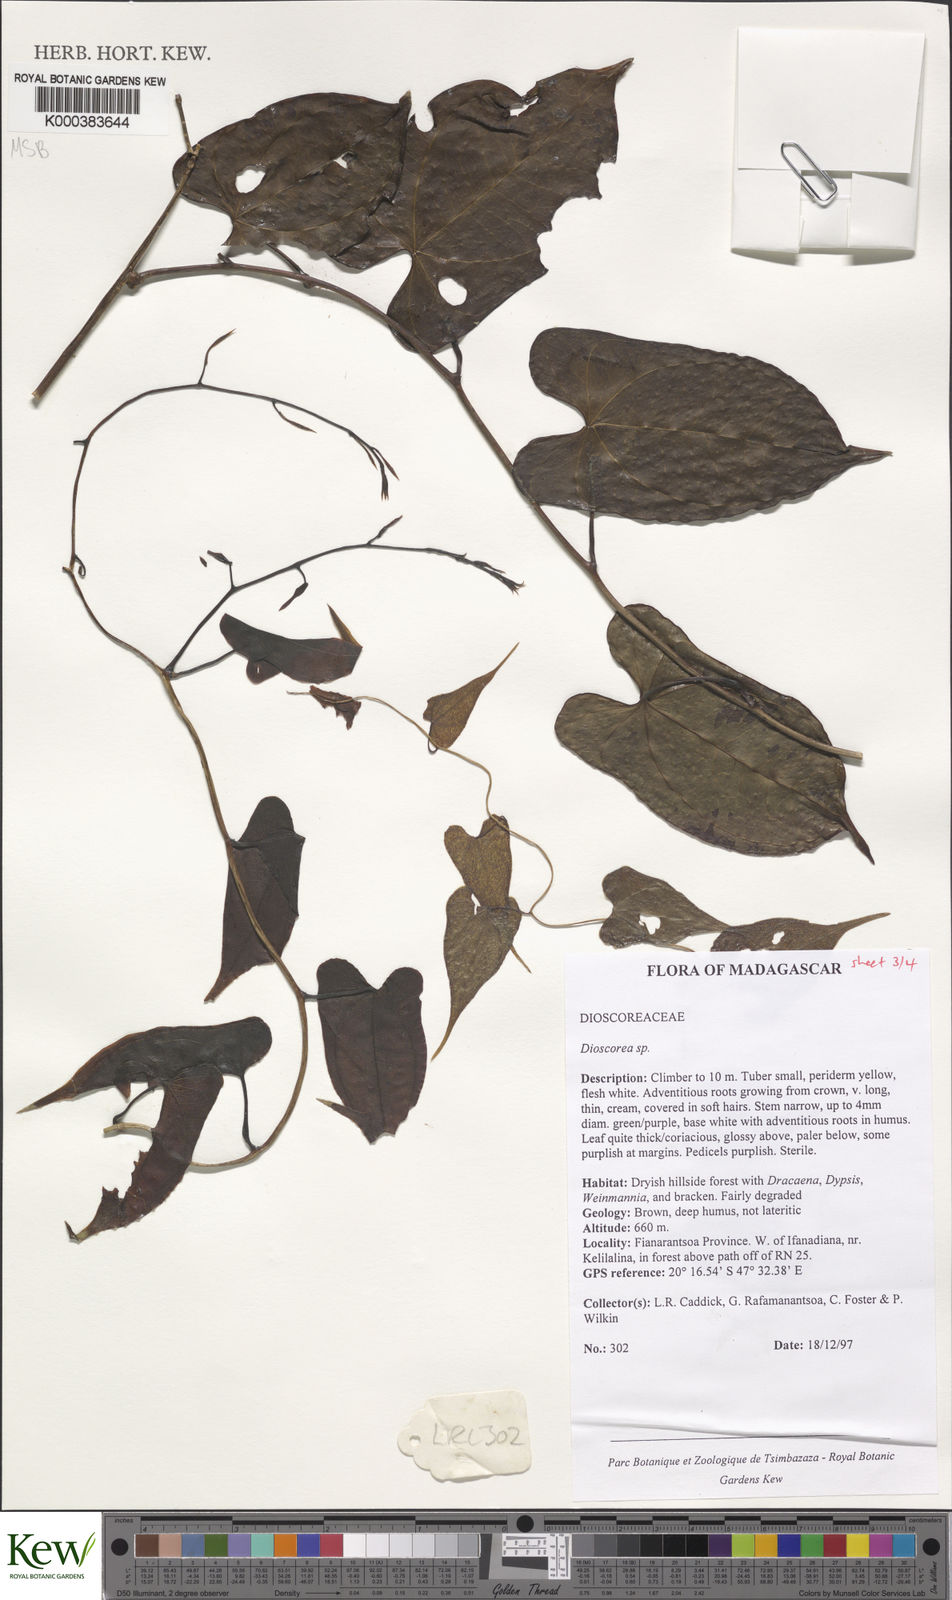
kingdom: Plantae
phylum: Tracheophyta
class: Liliopsida
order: Dioscoreales
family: Dioscoreaceae
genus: Dioscorea
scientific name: Dioscorea arcuatinervis
